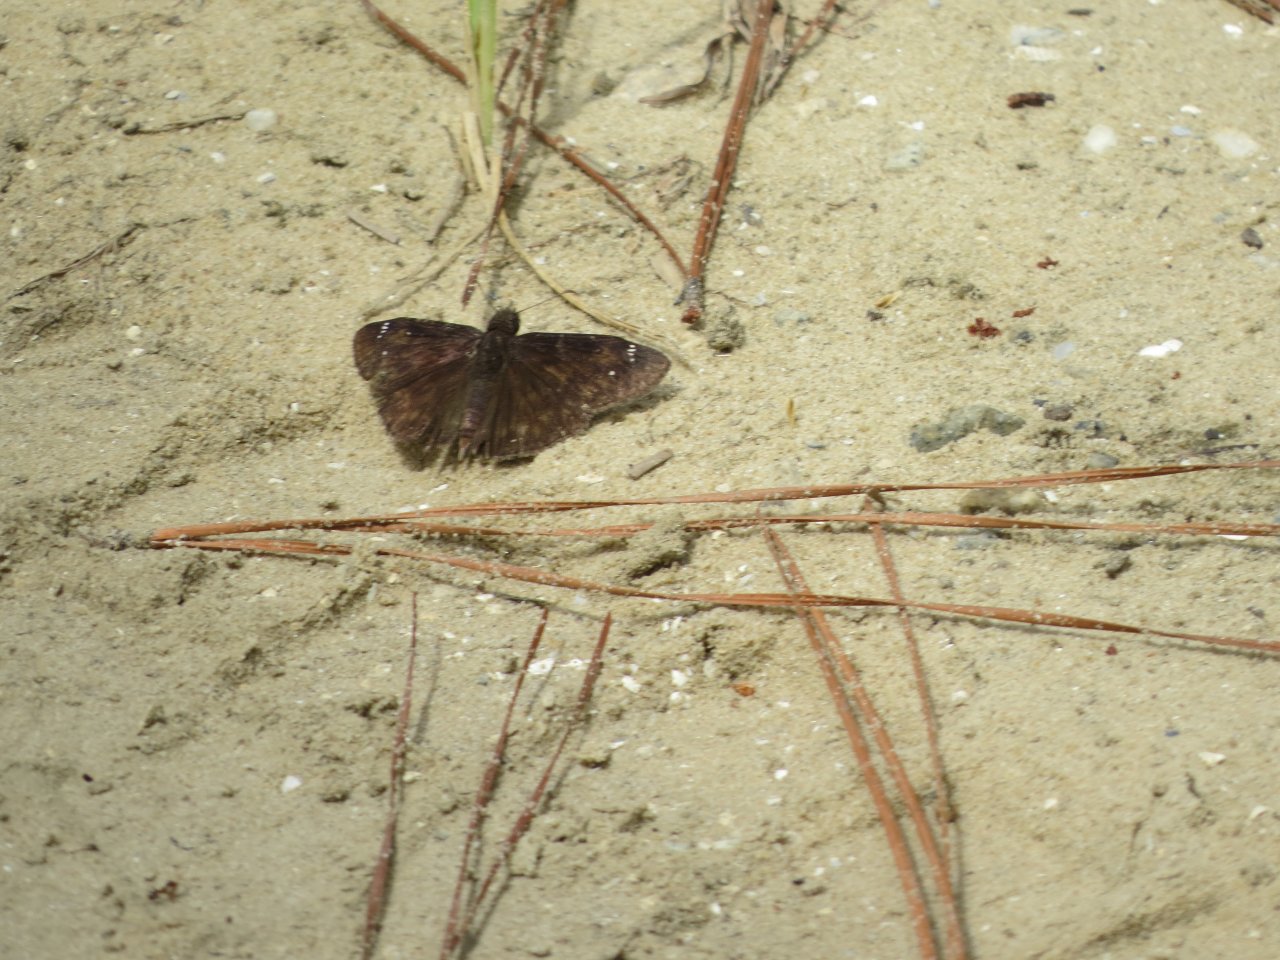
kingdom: Animalia
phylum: Arthropoda
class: Insecta
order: Lepidoptera
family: Hesperiidae
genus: Erynnis
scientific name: Erynnis zarucco
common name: Zarucco Duskywing
